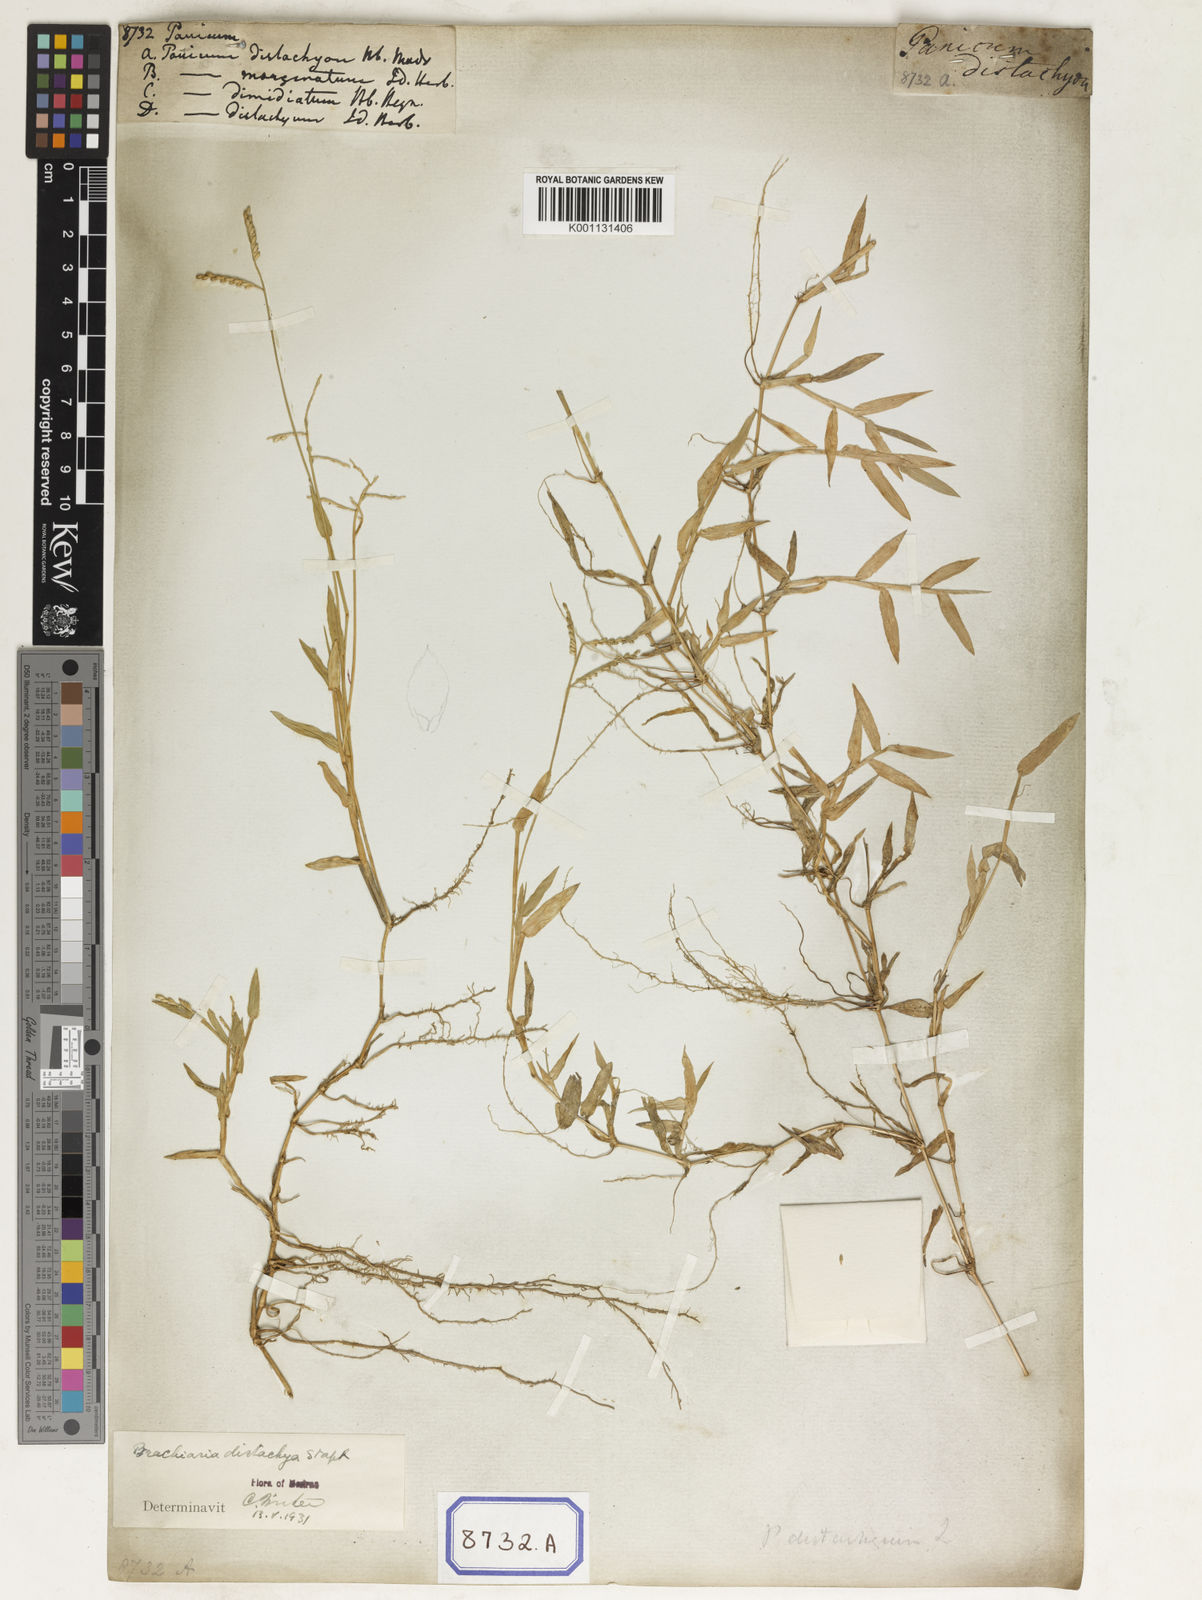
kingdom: Plantae
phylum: Tracheophyta
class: Liliopsida
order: Poales
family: Poaceae
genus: Panicum
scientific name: Panicum
